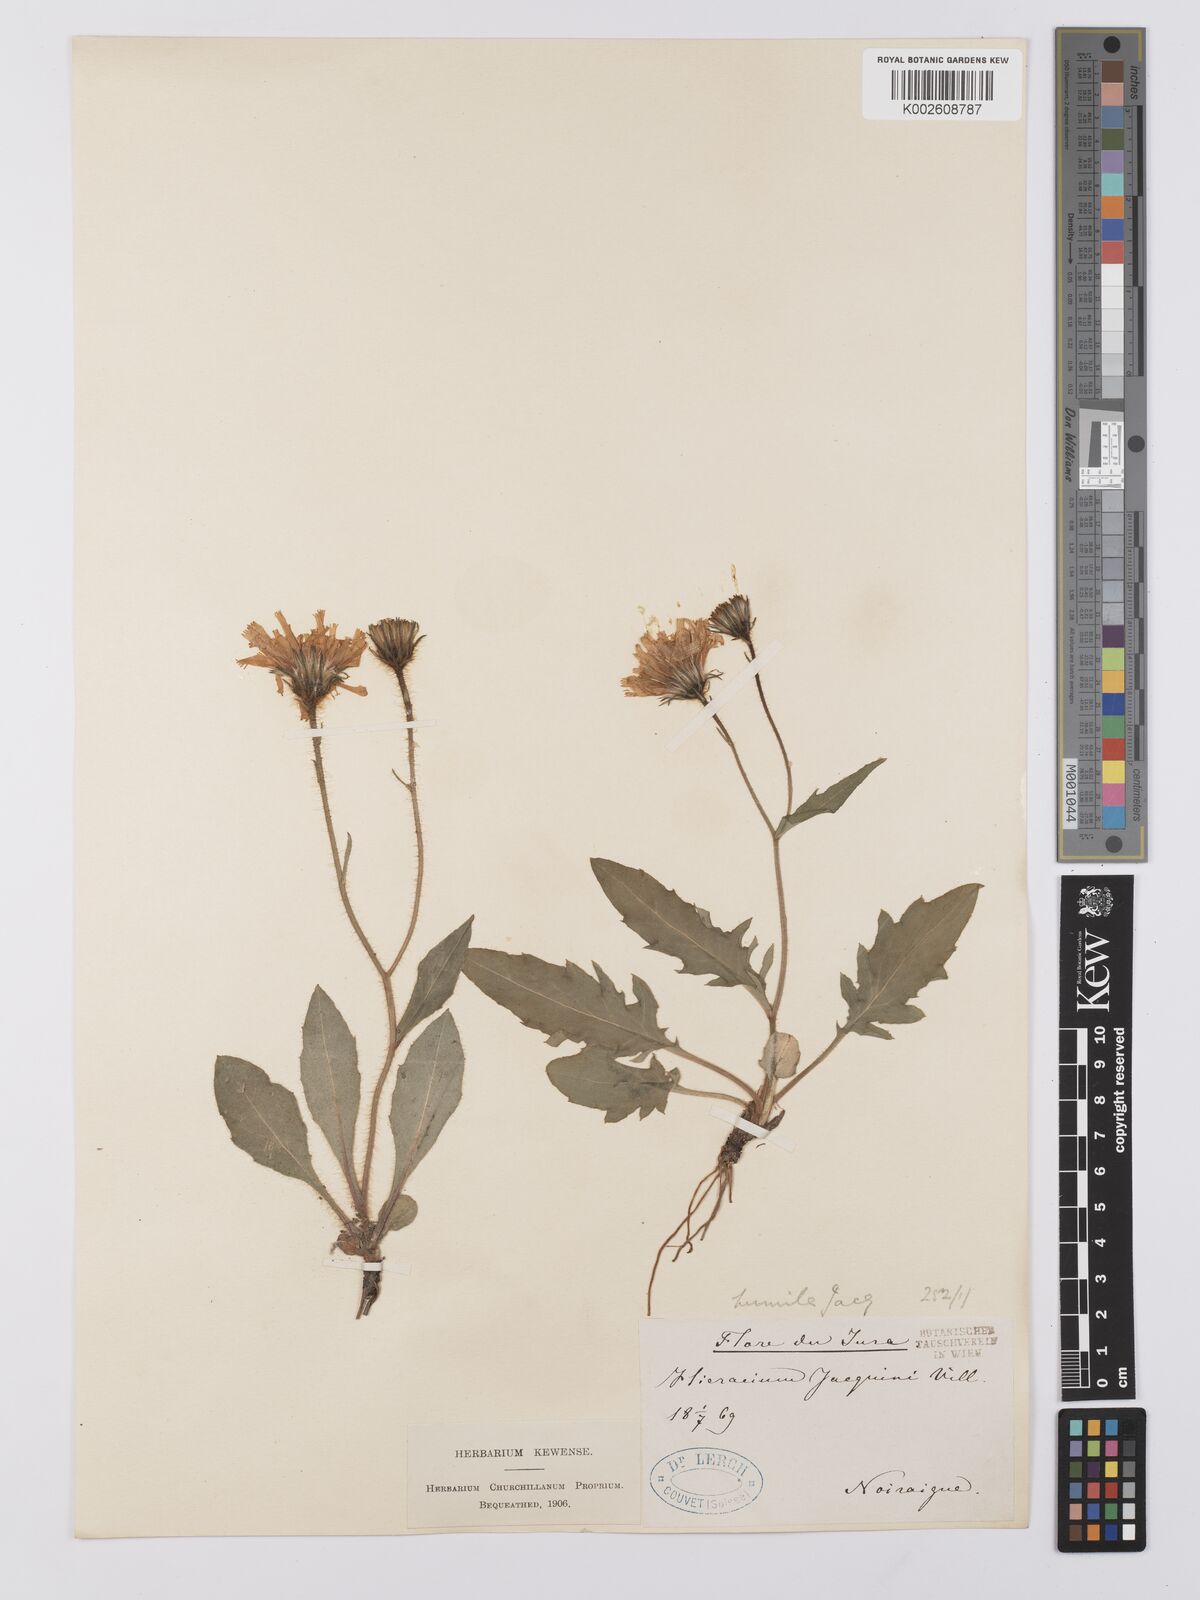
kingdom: Plantae
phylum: Tracheophyta
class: Magnoliopsida
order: Asterales
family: Asteraceae
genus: Hieracium
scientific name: Hieracium humile
